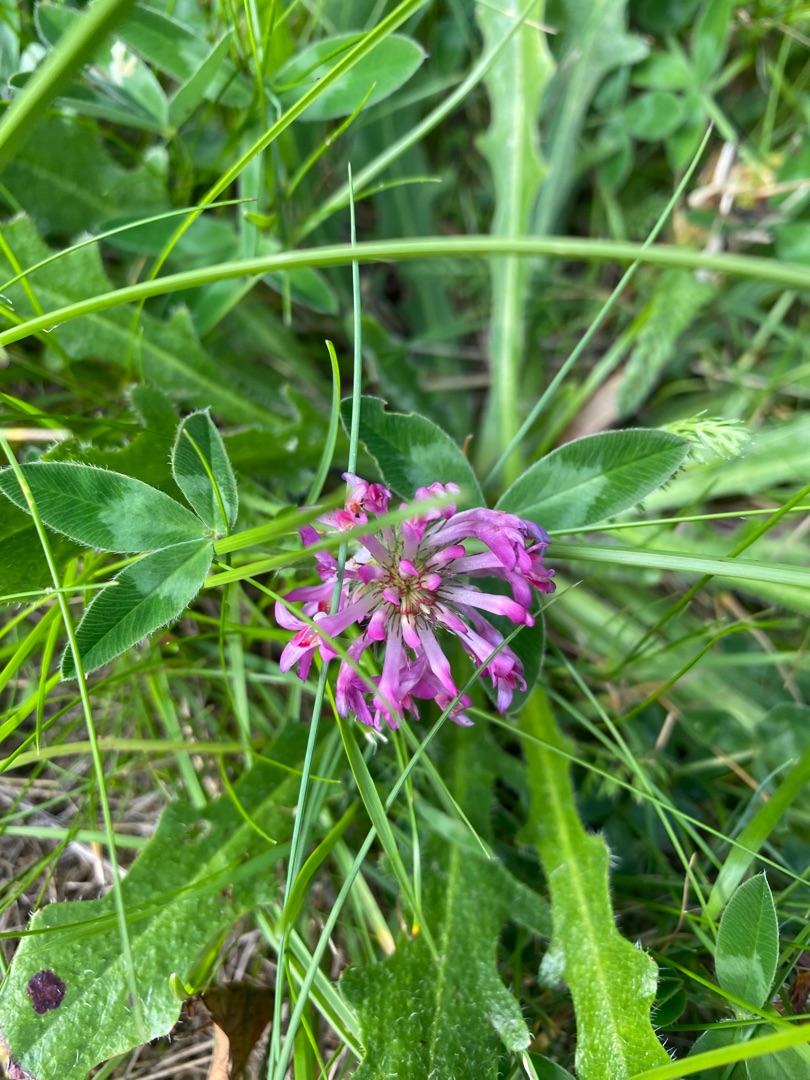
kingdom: Plantae
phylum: Tracheophyta
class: Magnoliopsida
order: Fabales
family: Fabaceae
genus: Trifolium
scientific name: Trifolium medium
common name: Bugtet kløver
